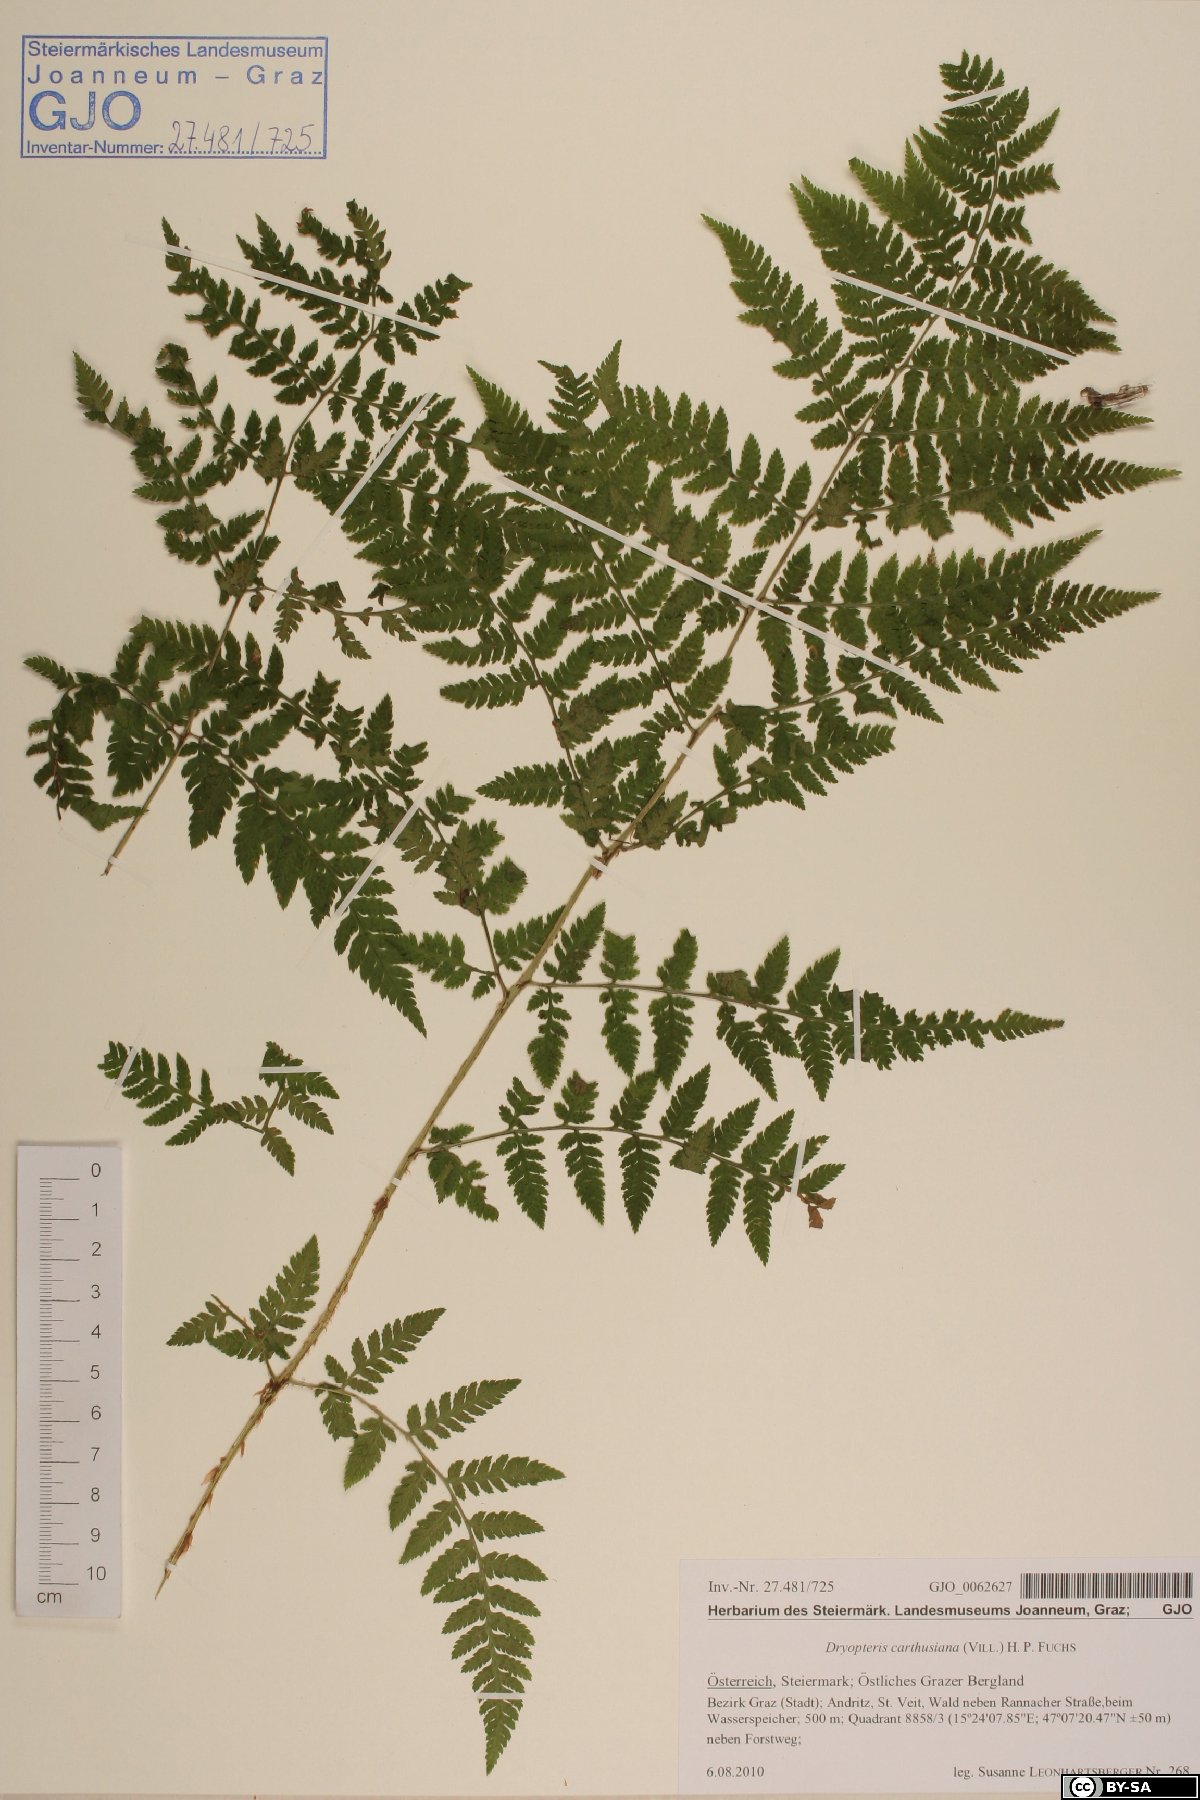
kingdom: Plantae
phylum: Tracheophyta
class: Polypodiopsida
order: Polypodiales
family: Dryopteridaceae
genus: Dryopteris
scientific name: Dryopteris carthusiana
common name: Narrow buckler-fern
